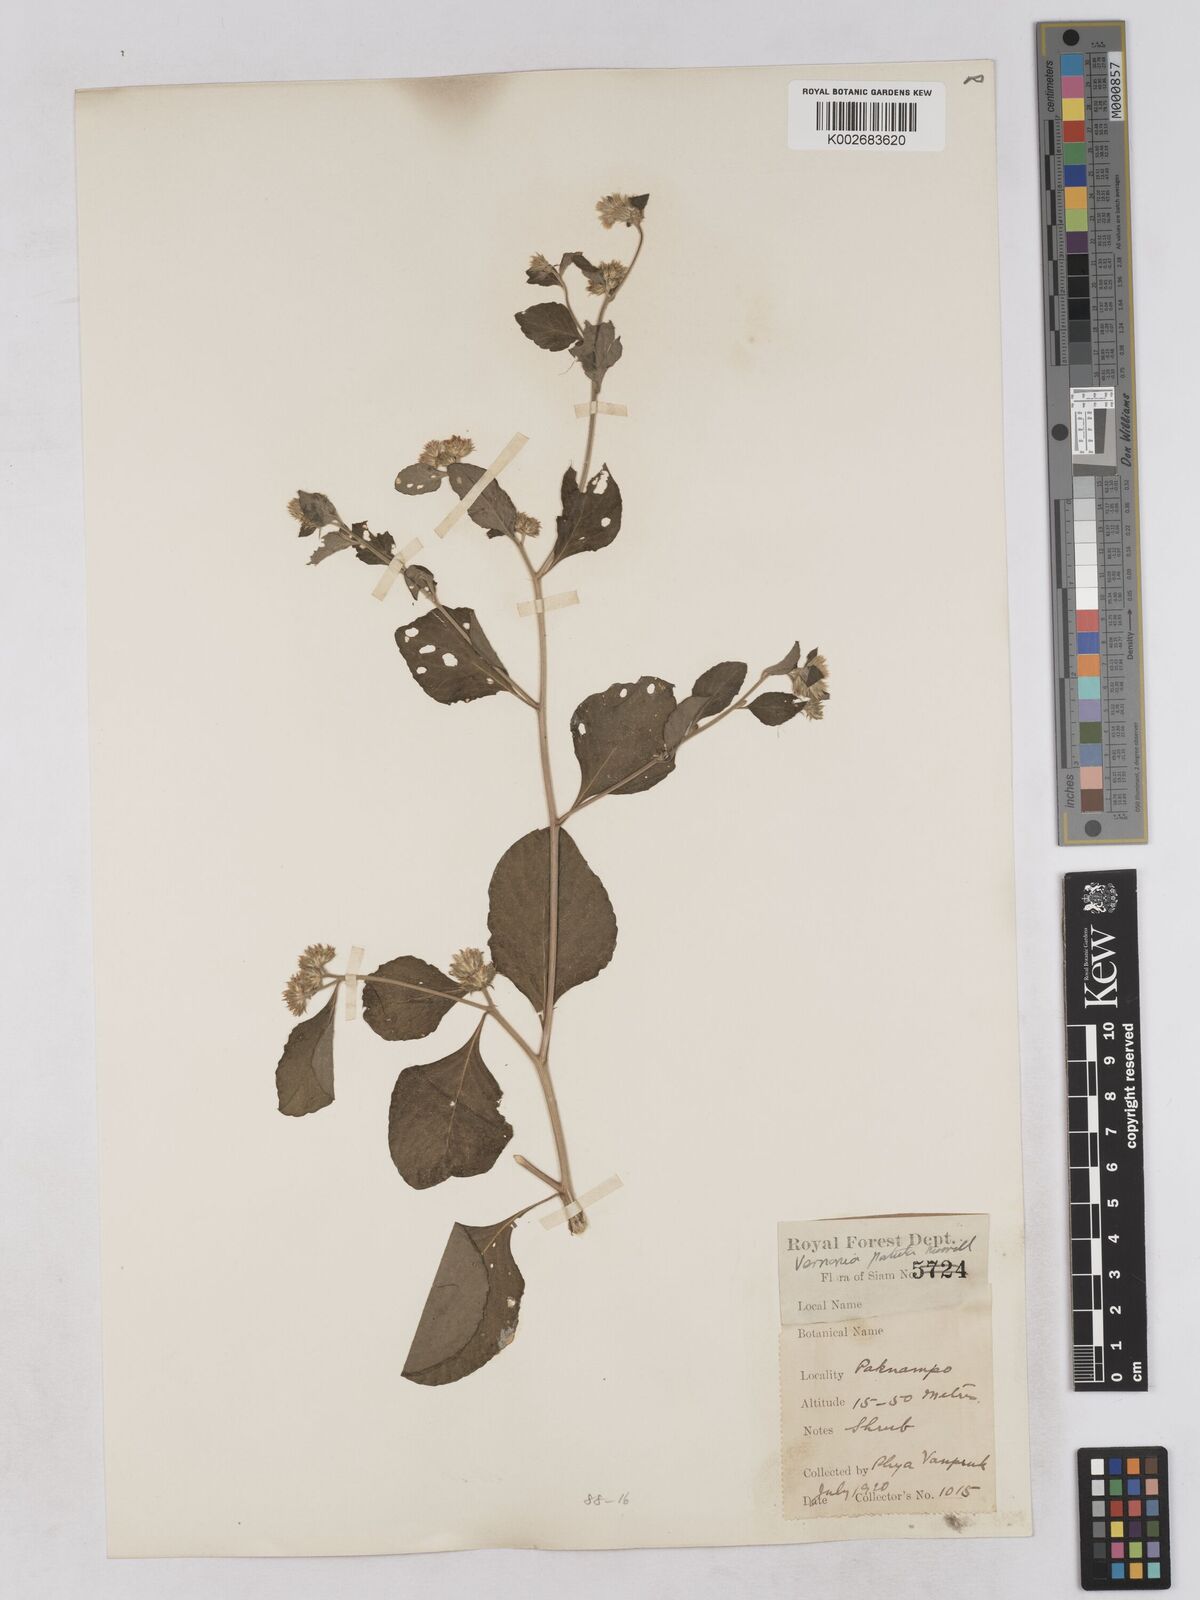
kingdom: Plantae
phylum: Tracheophyta
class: Magnoliopsida
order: Asterales
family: Asteraceae
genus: Cyanthillium
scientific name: Cyanthillium patulum
